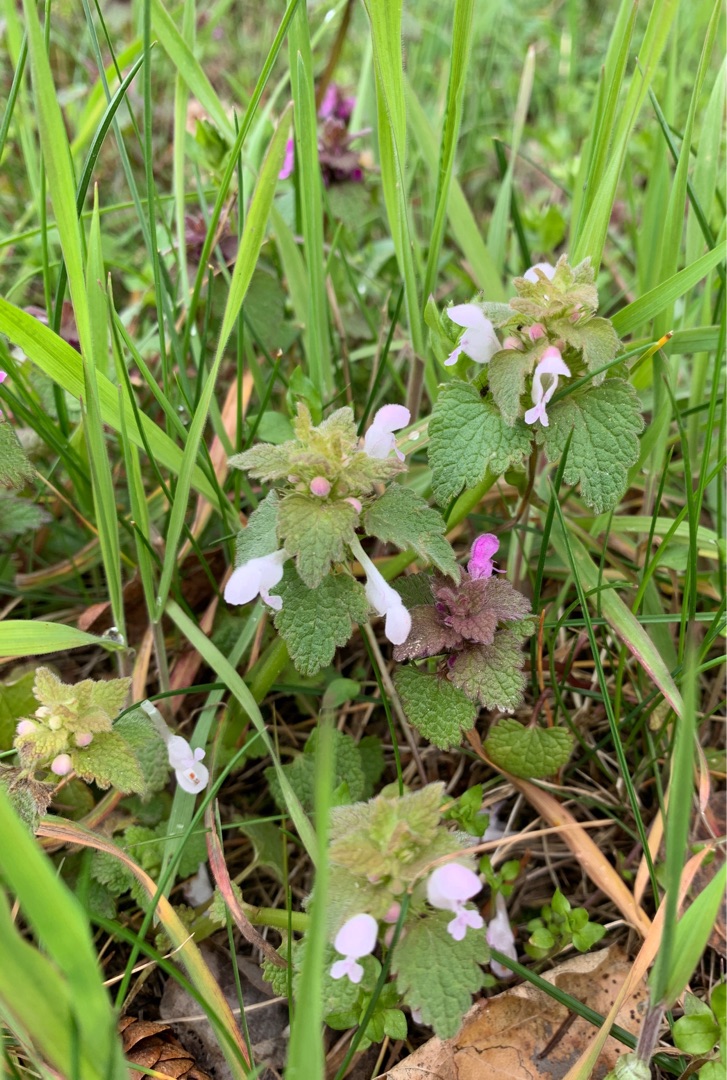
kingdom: Plantae
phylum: Tracheophyta
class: Magnoliopsida
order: Lamiales
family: Lamiaceae
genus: Lamium
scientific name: Lamium purpureum
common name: Rød tvetand
